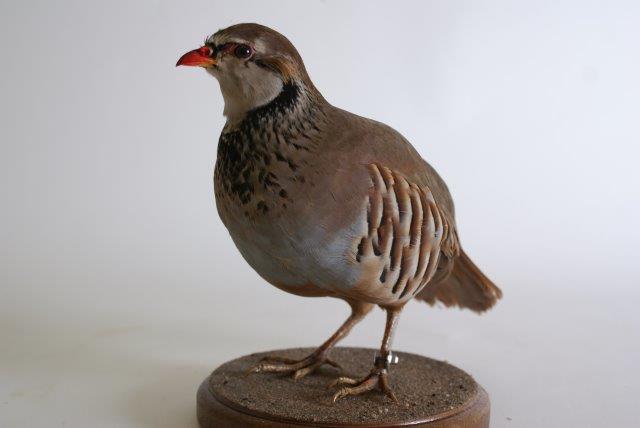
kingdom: Animalia
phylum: Chordata
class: Aves
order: Galliformes
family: Phasianidae
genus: Alectoris
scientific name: Alectoris rufa
